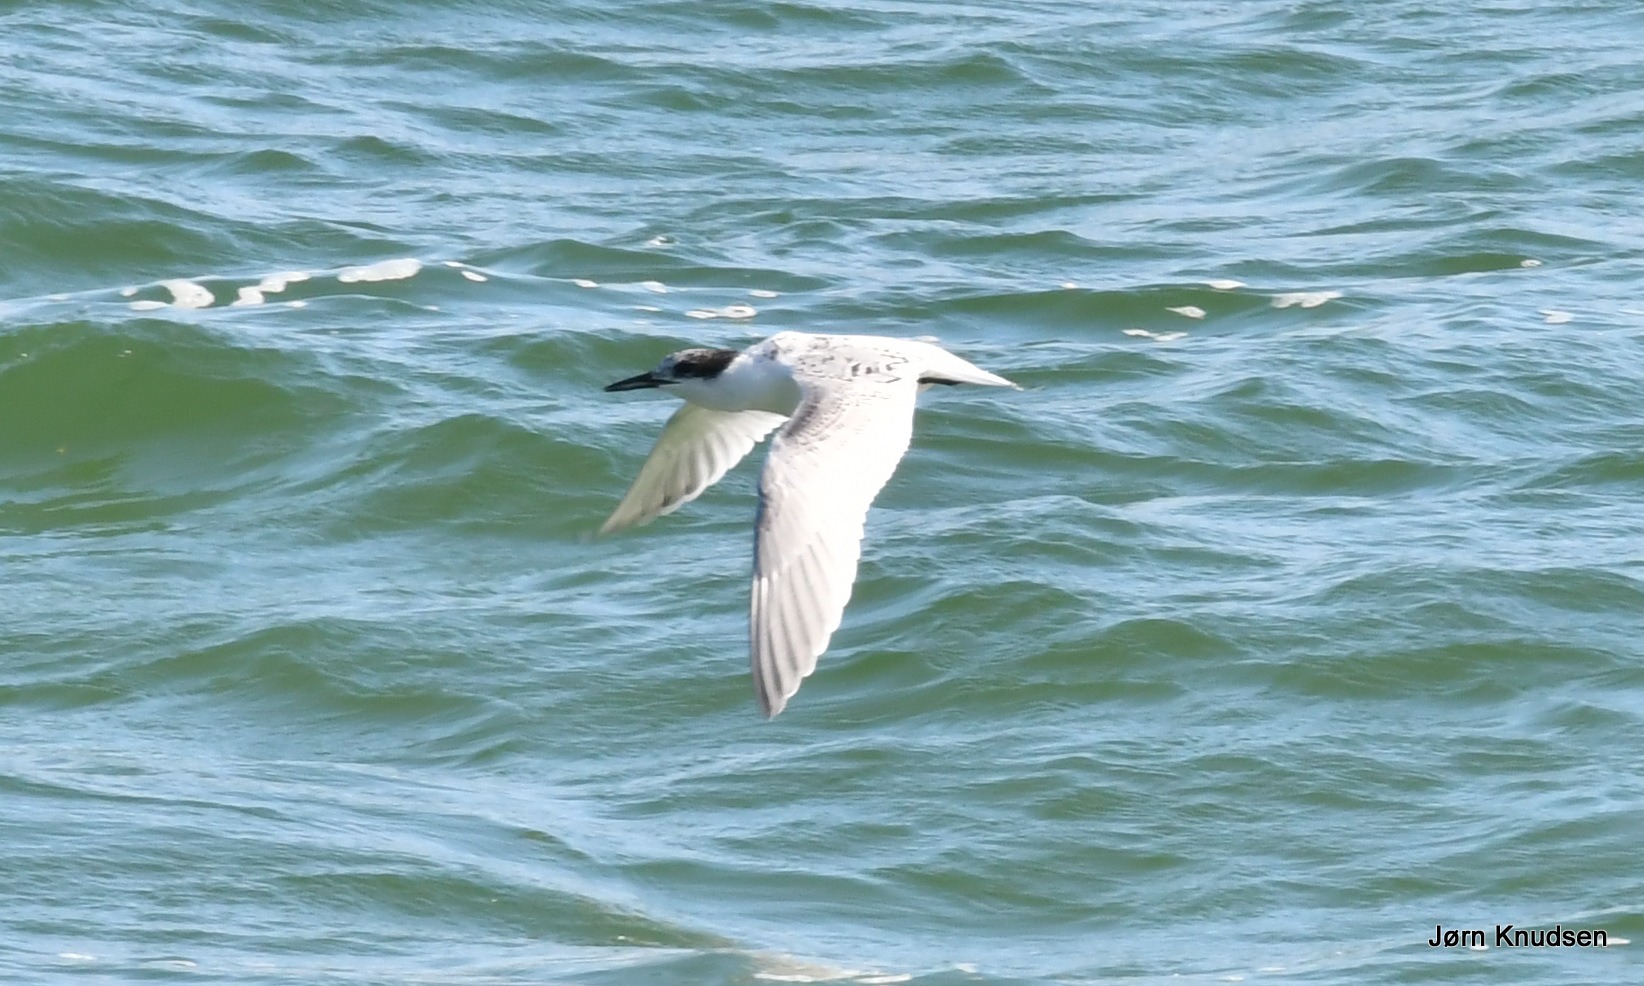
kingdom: Animalia
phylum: Chordata
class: Aves
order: Charadriiformes
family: Laridae
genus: Thalasseus
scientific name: Thalasseus sandvicensis
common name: Splitterne
